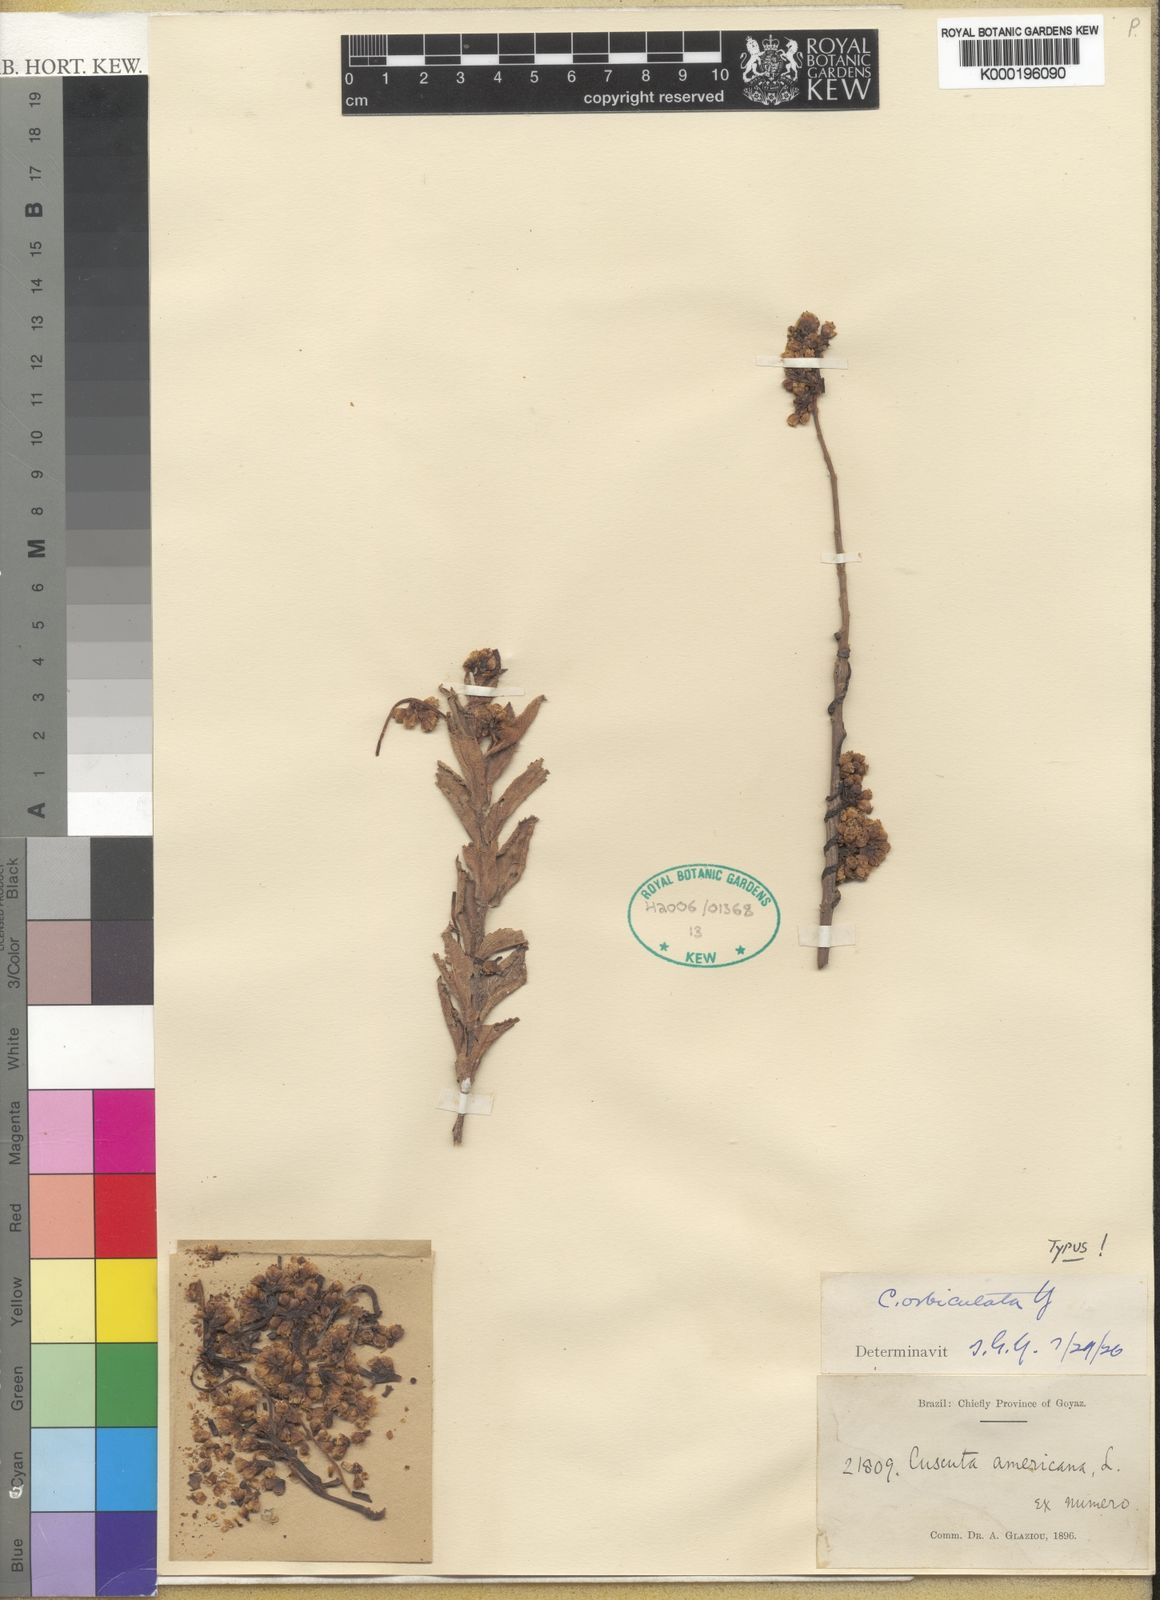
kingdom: Plantae
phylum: Tracheophyta
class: Magnoliopsida
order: Solanales
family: Convolvulaceae
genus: Cuscuta
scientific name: Cuscuta orbiculata
